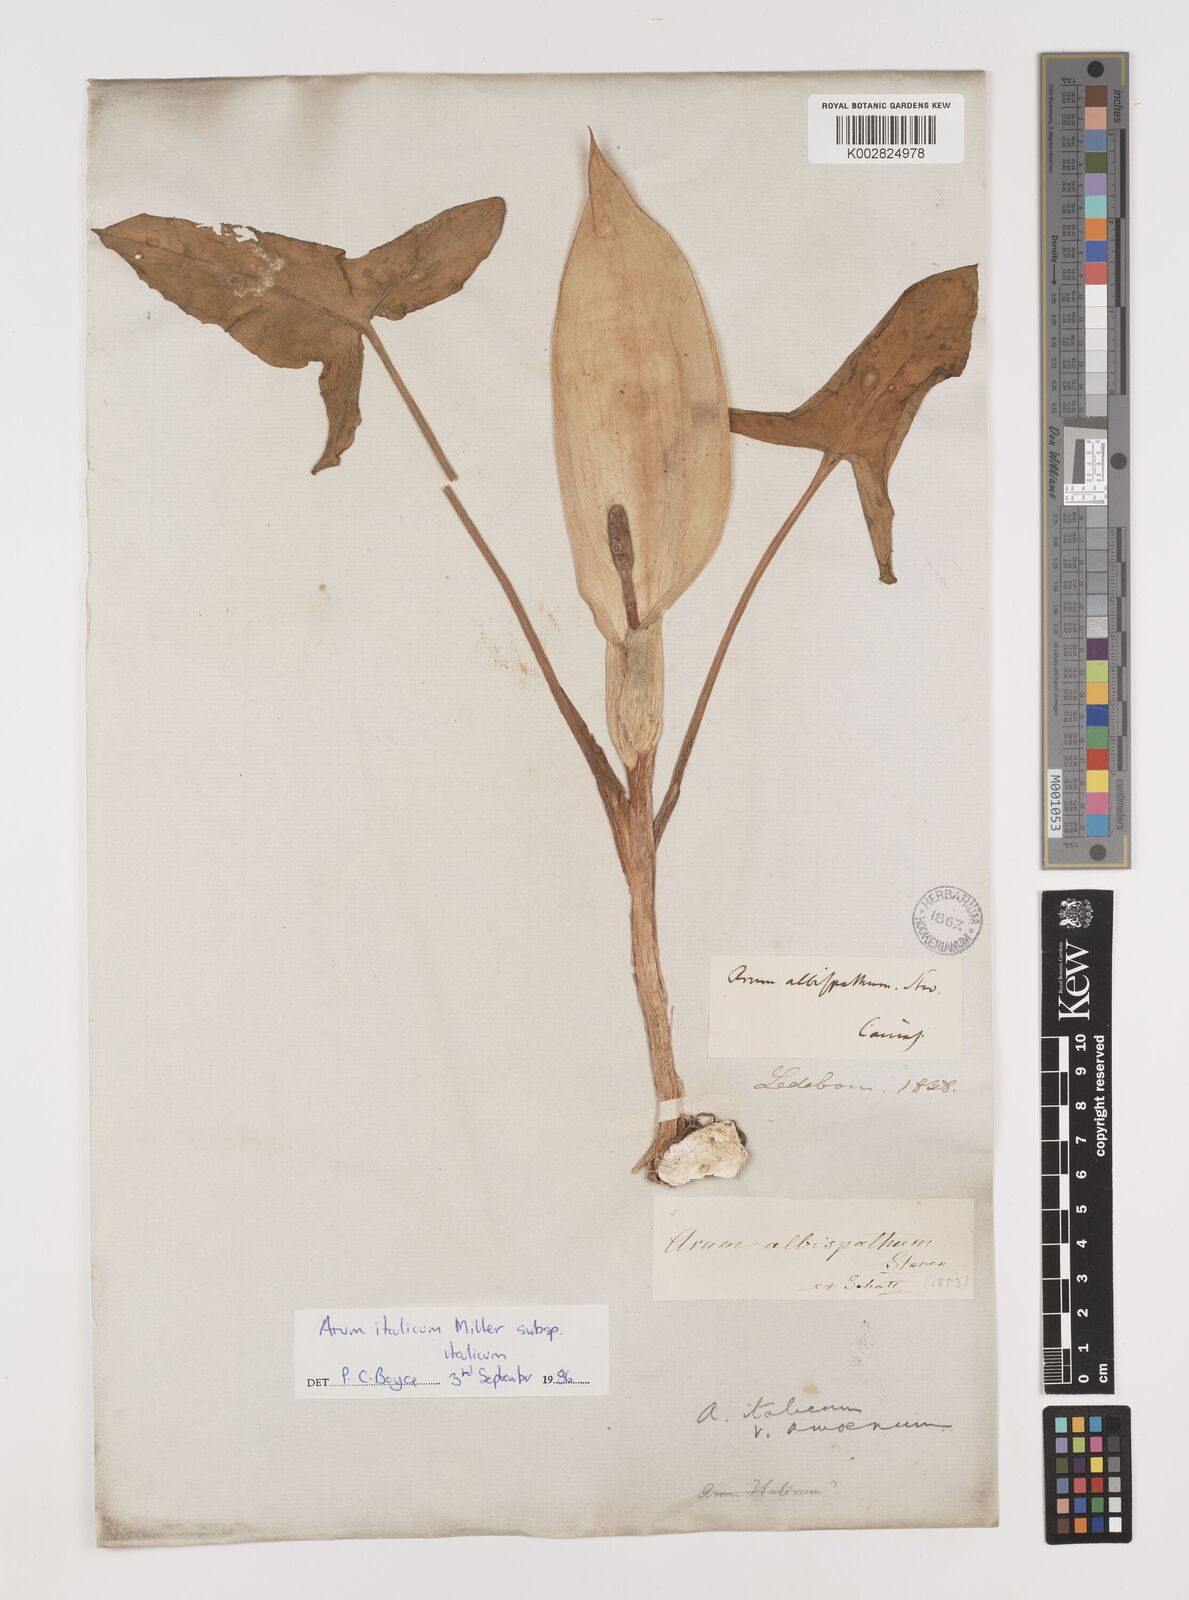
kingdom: Plantae
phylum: Tracheophyta
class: Liliopsida
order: Alismatales
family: Araceae
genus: Arum
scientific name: Arum italicum
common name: Italian lords-and-ladies
